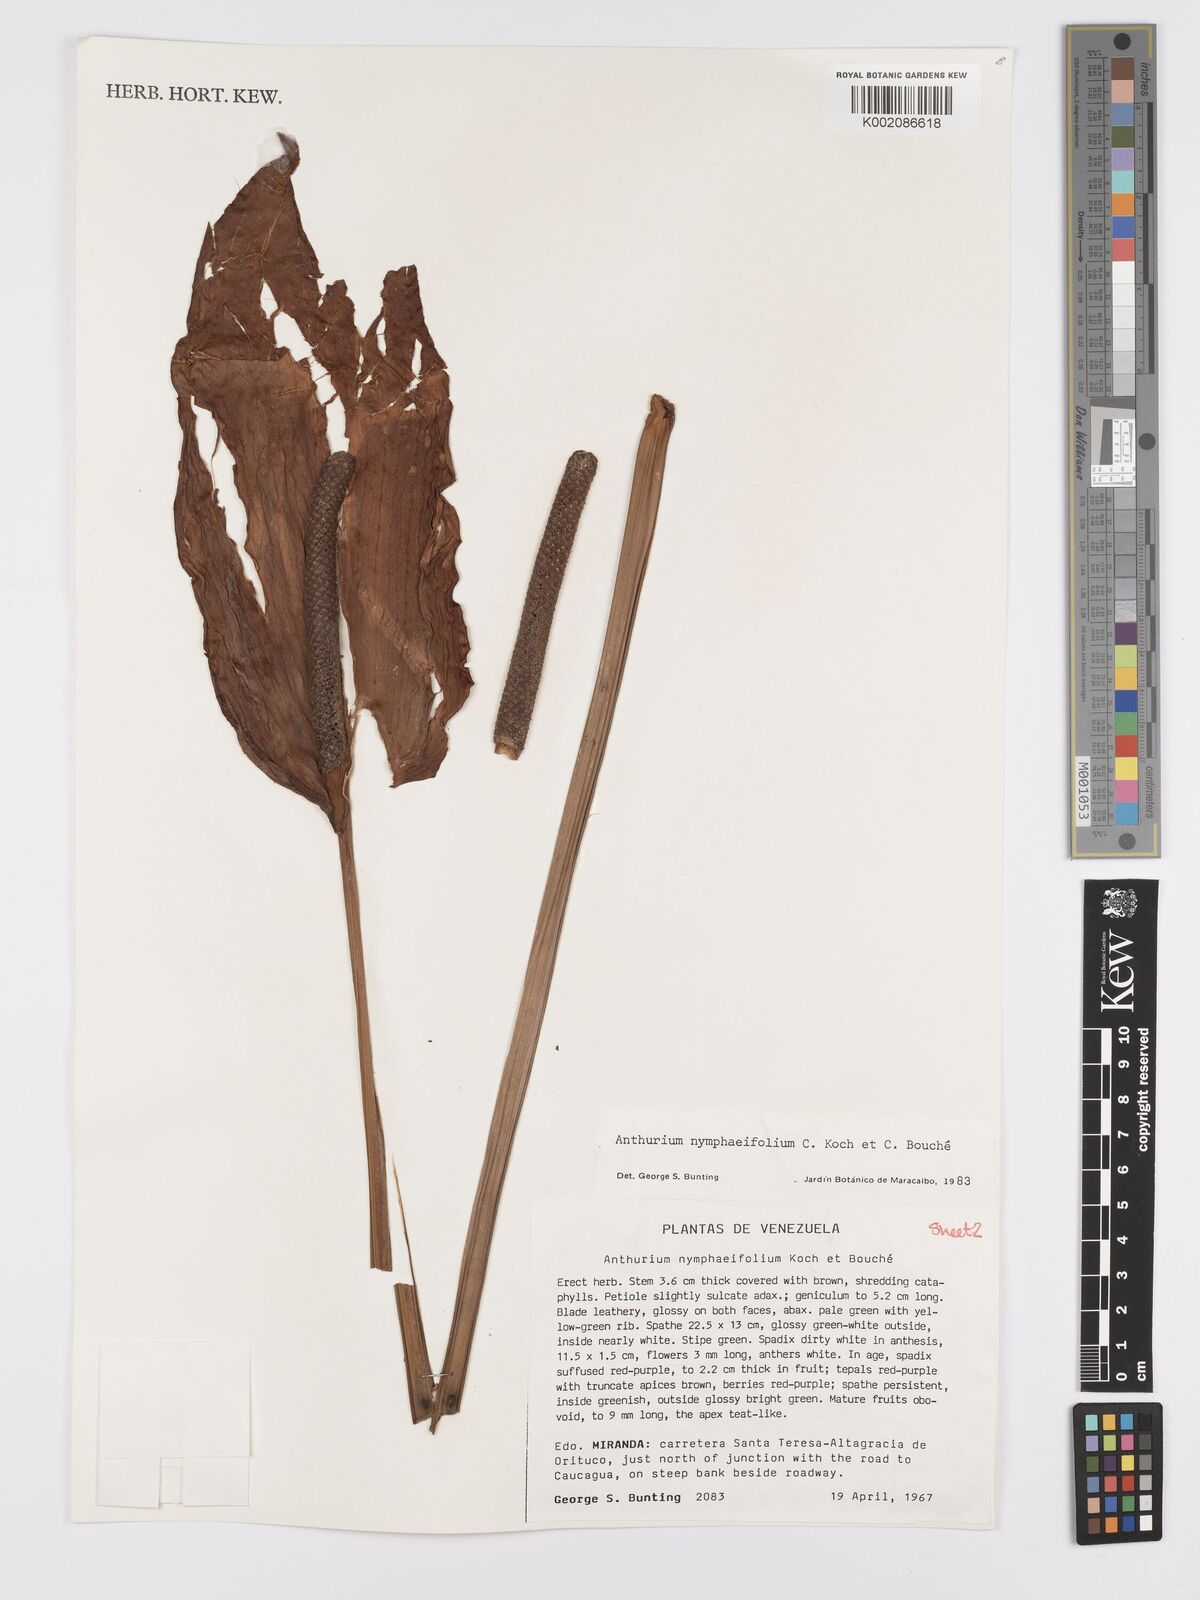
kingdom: Plantae
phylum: Tracheophyta
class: Liliopsida
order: Alismatales
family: Araceae
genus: Anthurium
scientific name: Anthurium nymphaeifolium
